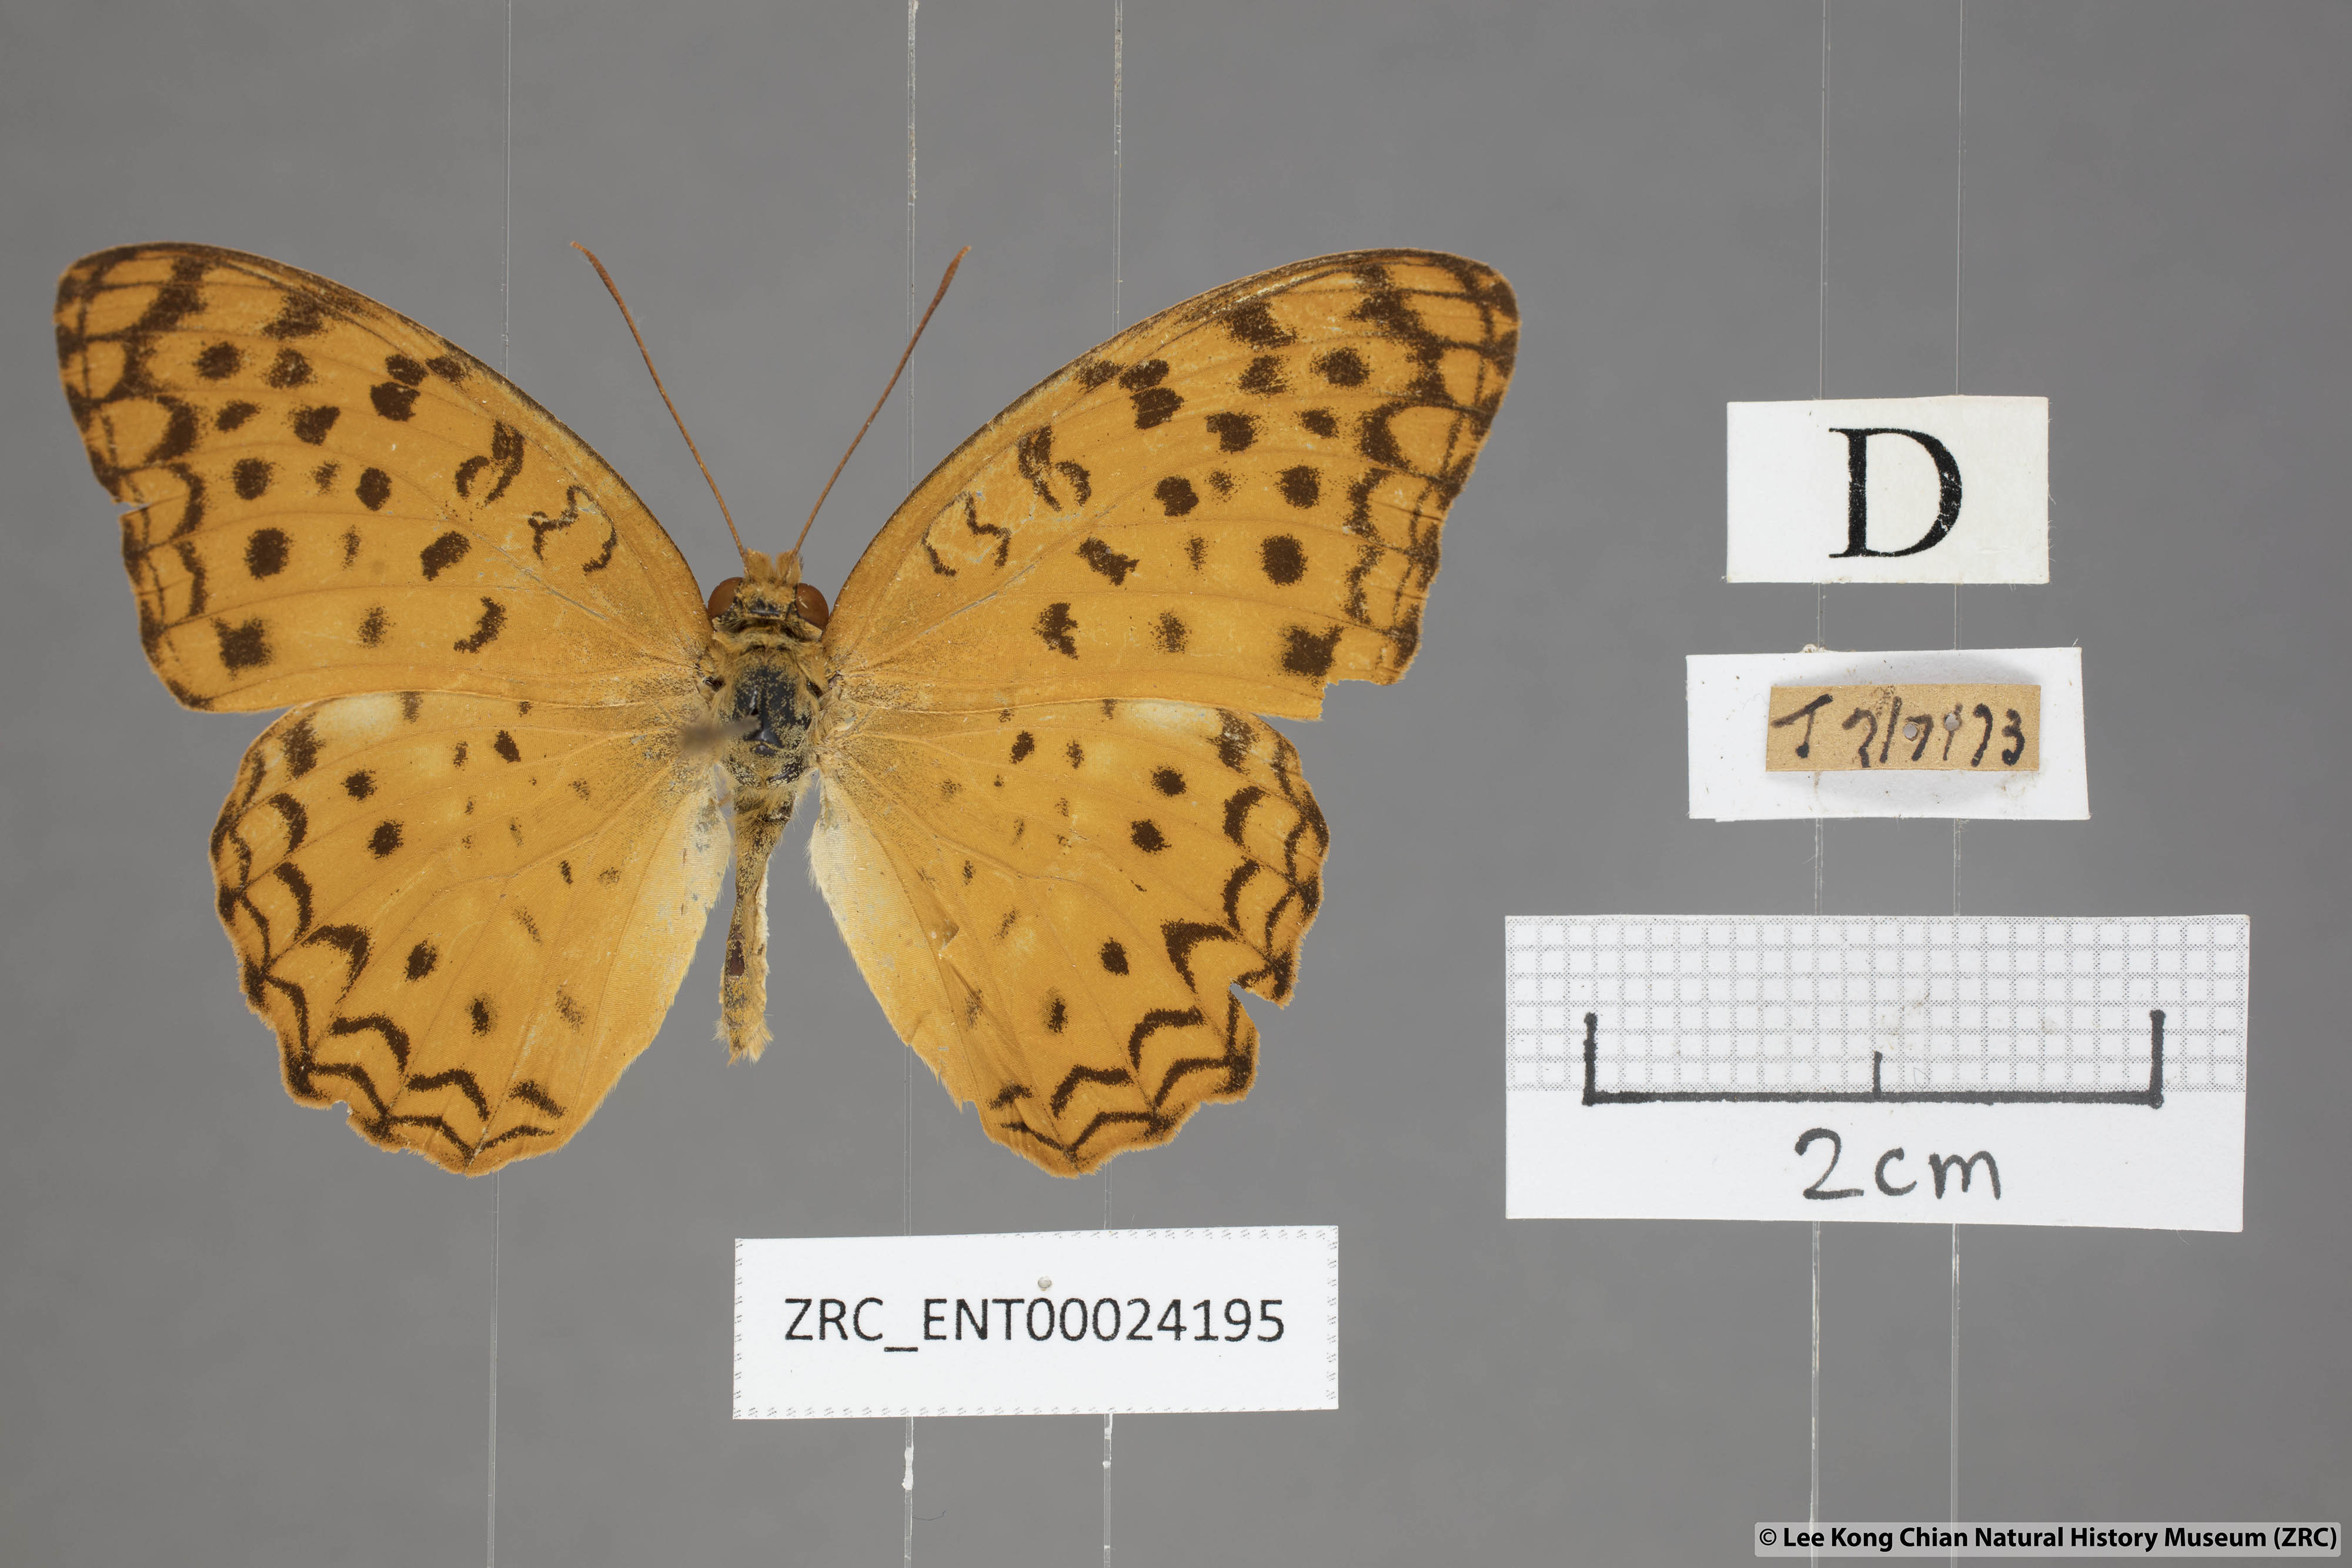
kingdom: Animalia
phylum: Arthropoda
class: Insecta
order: Lepidoptera
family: Nymphalidae
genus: Phalanta
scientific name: Phalanta phalantha
